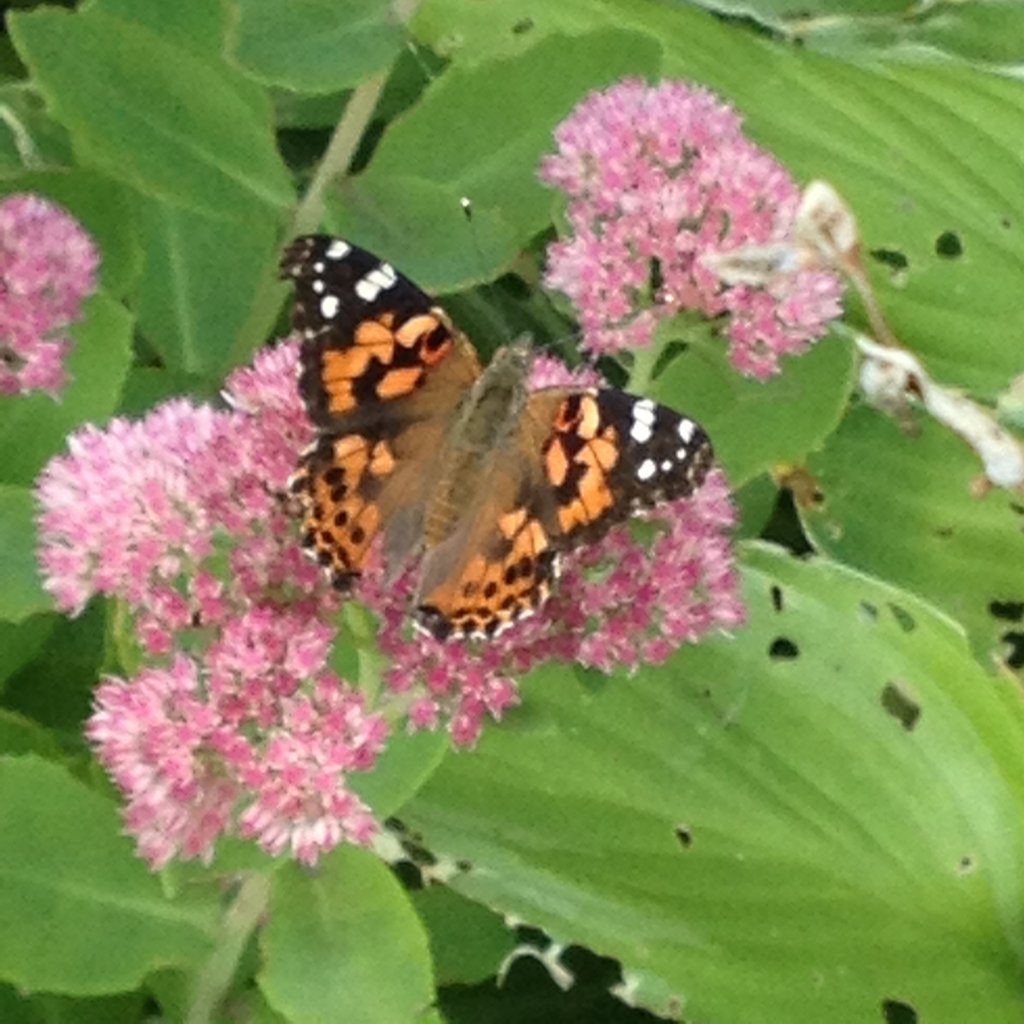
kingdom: Animalia
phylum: Arthropoda
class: Insecta
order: Lepidoptera
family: Nymphalidae
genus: Vanessa
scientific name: Vanessa cardui
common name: Painted Lady
